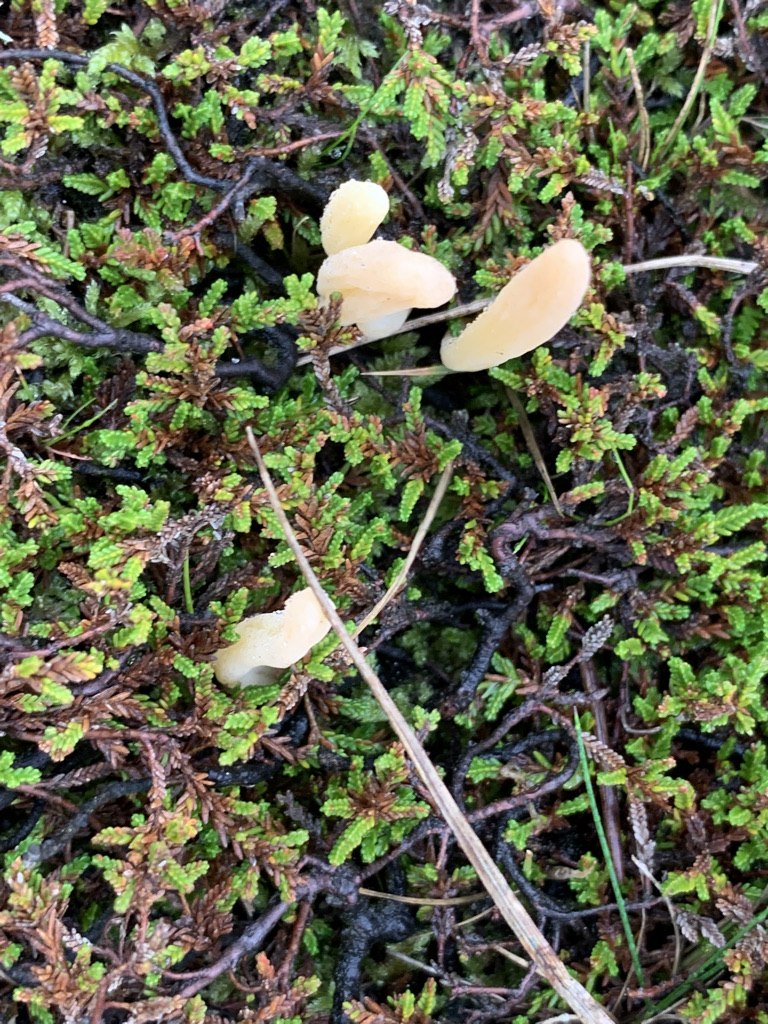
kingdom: Fungi
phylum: Basidiomycota
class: Agaricomycetes
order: Agaricales
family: Clavariaceae
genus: Clavaria
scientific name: Clavaria argillacea
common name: lerfarvet køllesvamp
